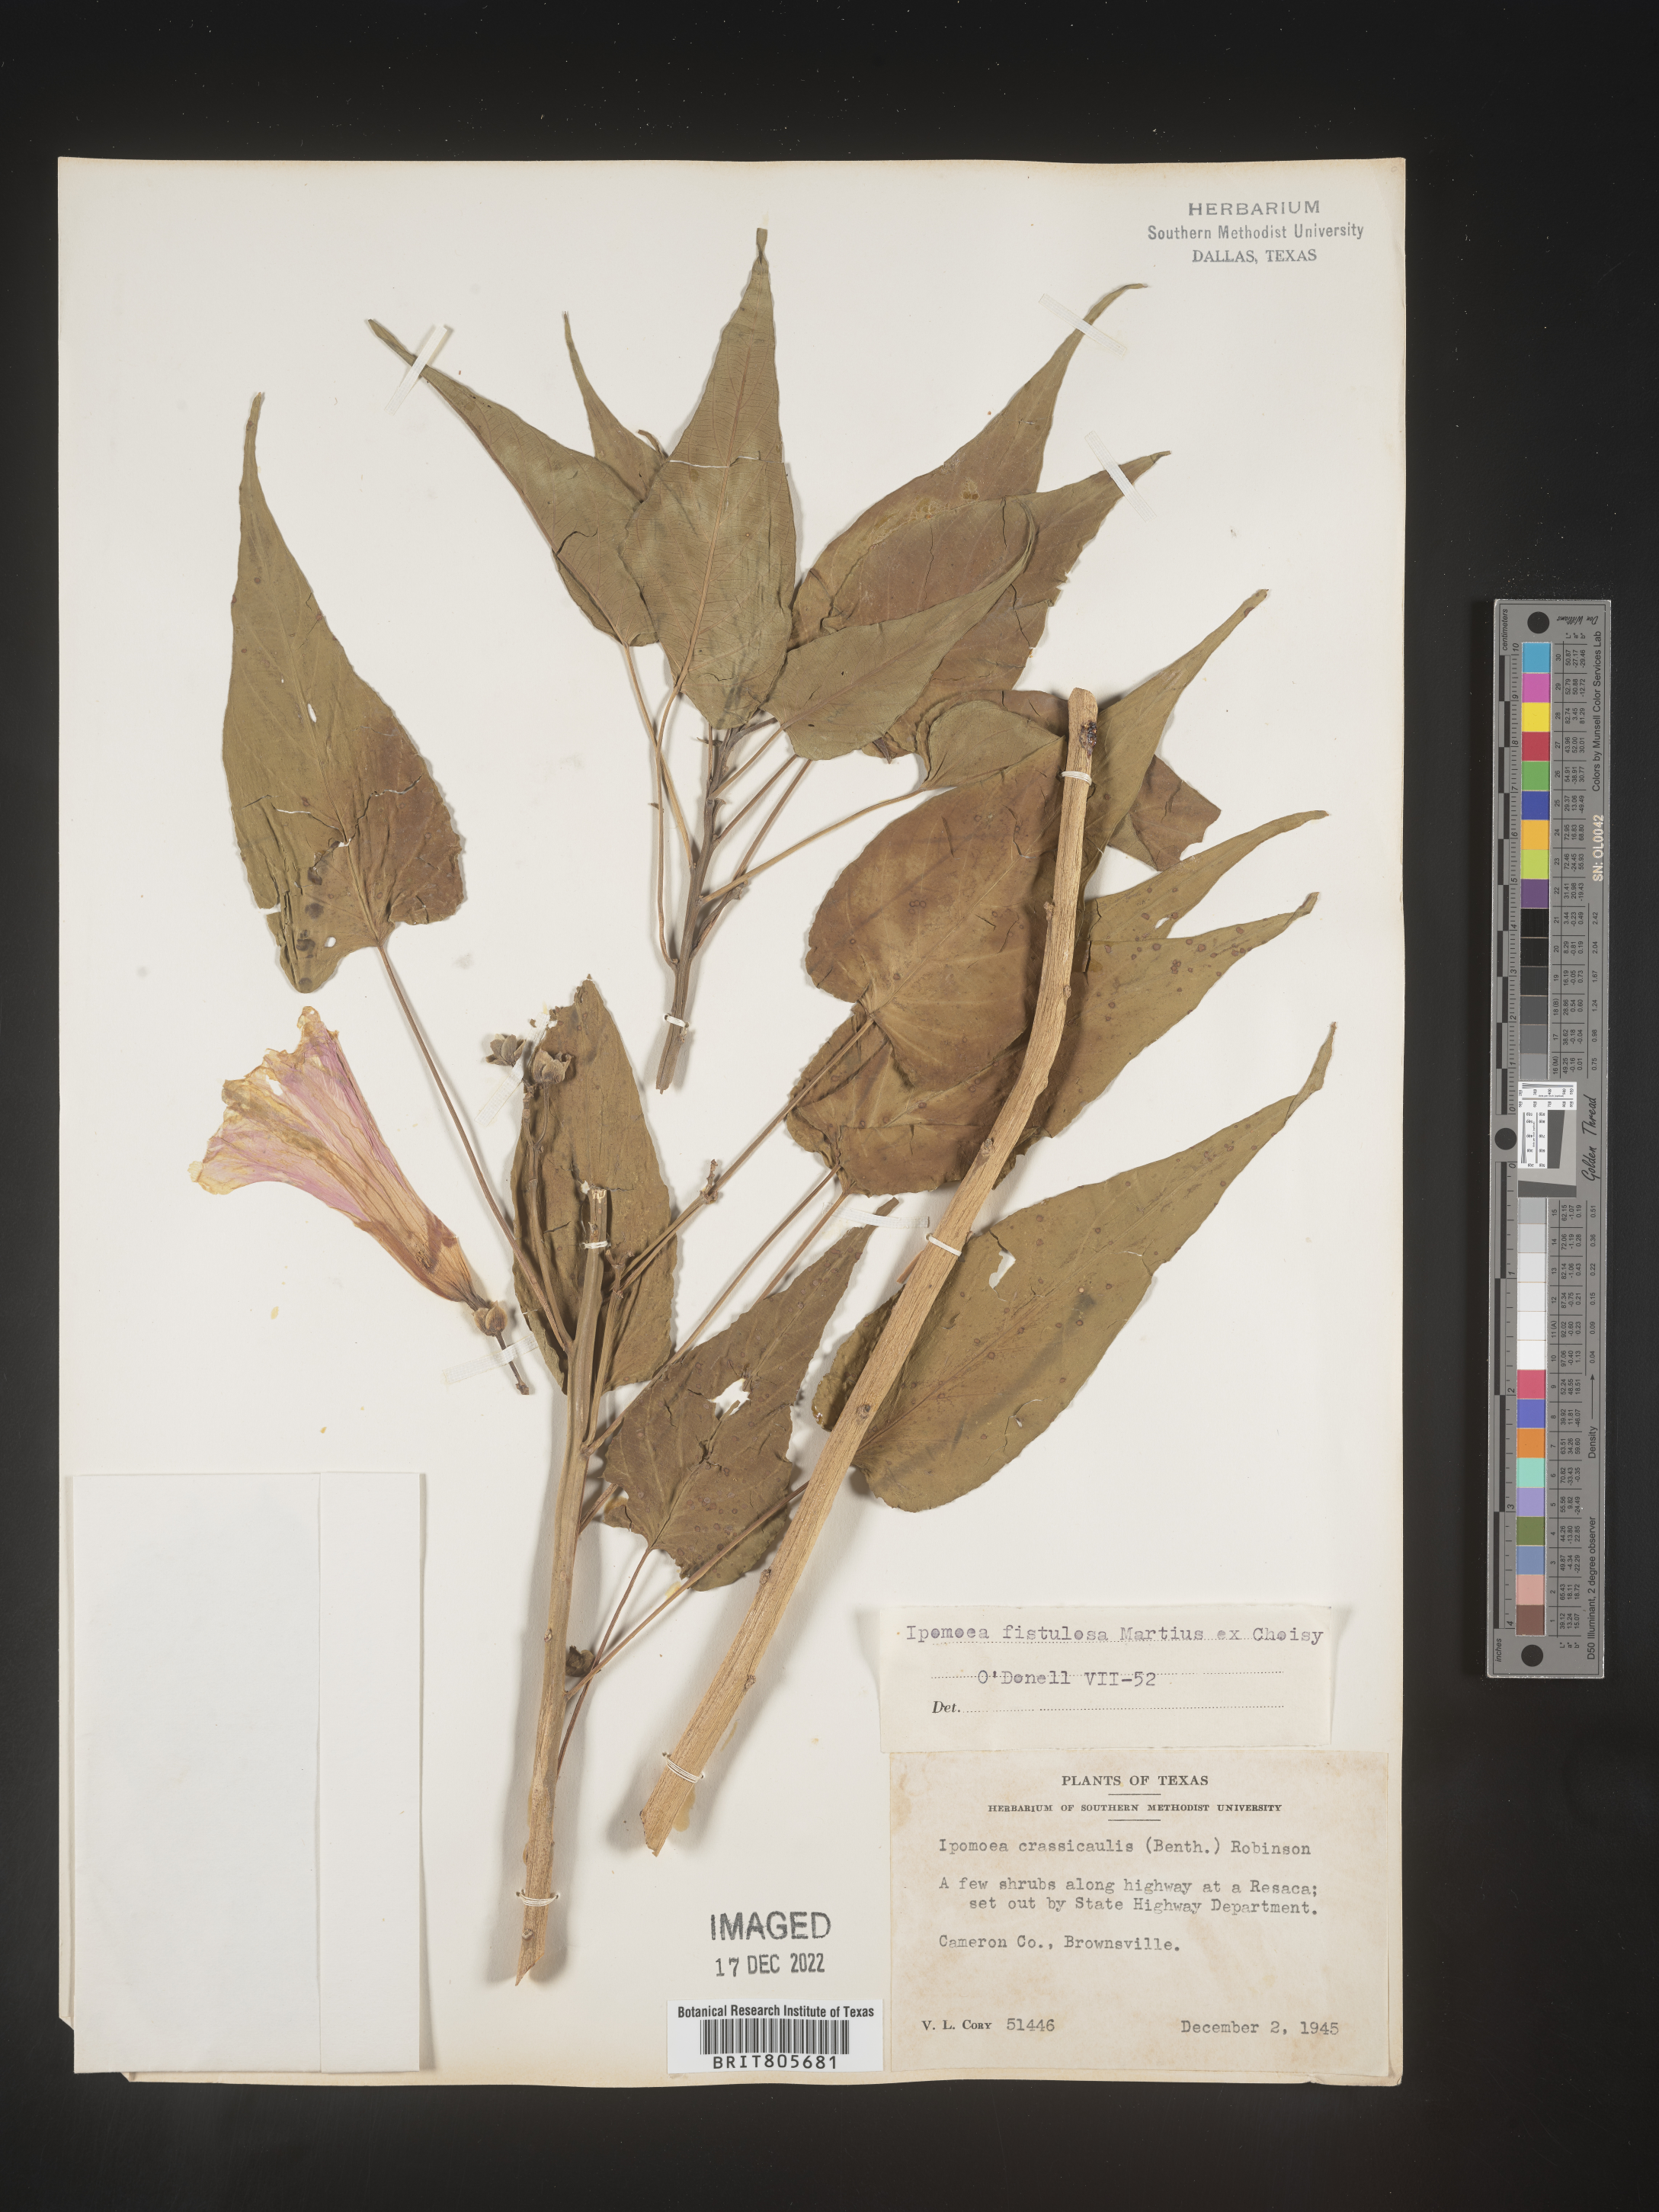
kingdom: Plantae
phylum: Tracheophyta
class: Magnoliopsida
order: Solanales
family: Convolvulaceae
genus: Ipomoea
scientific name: Ipomoea carnea
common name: Morning-glory
